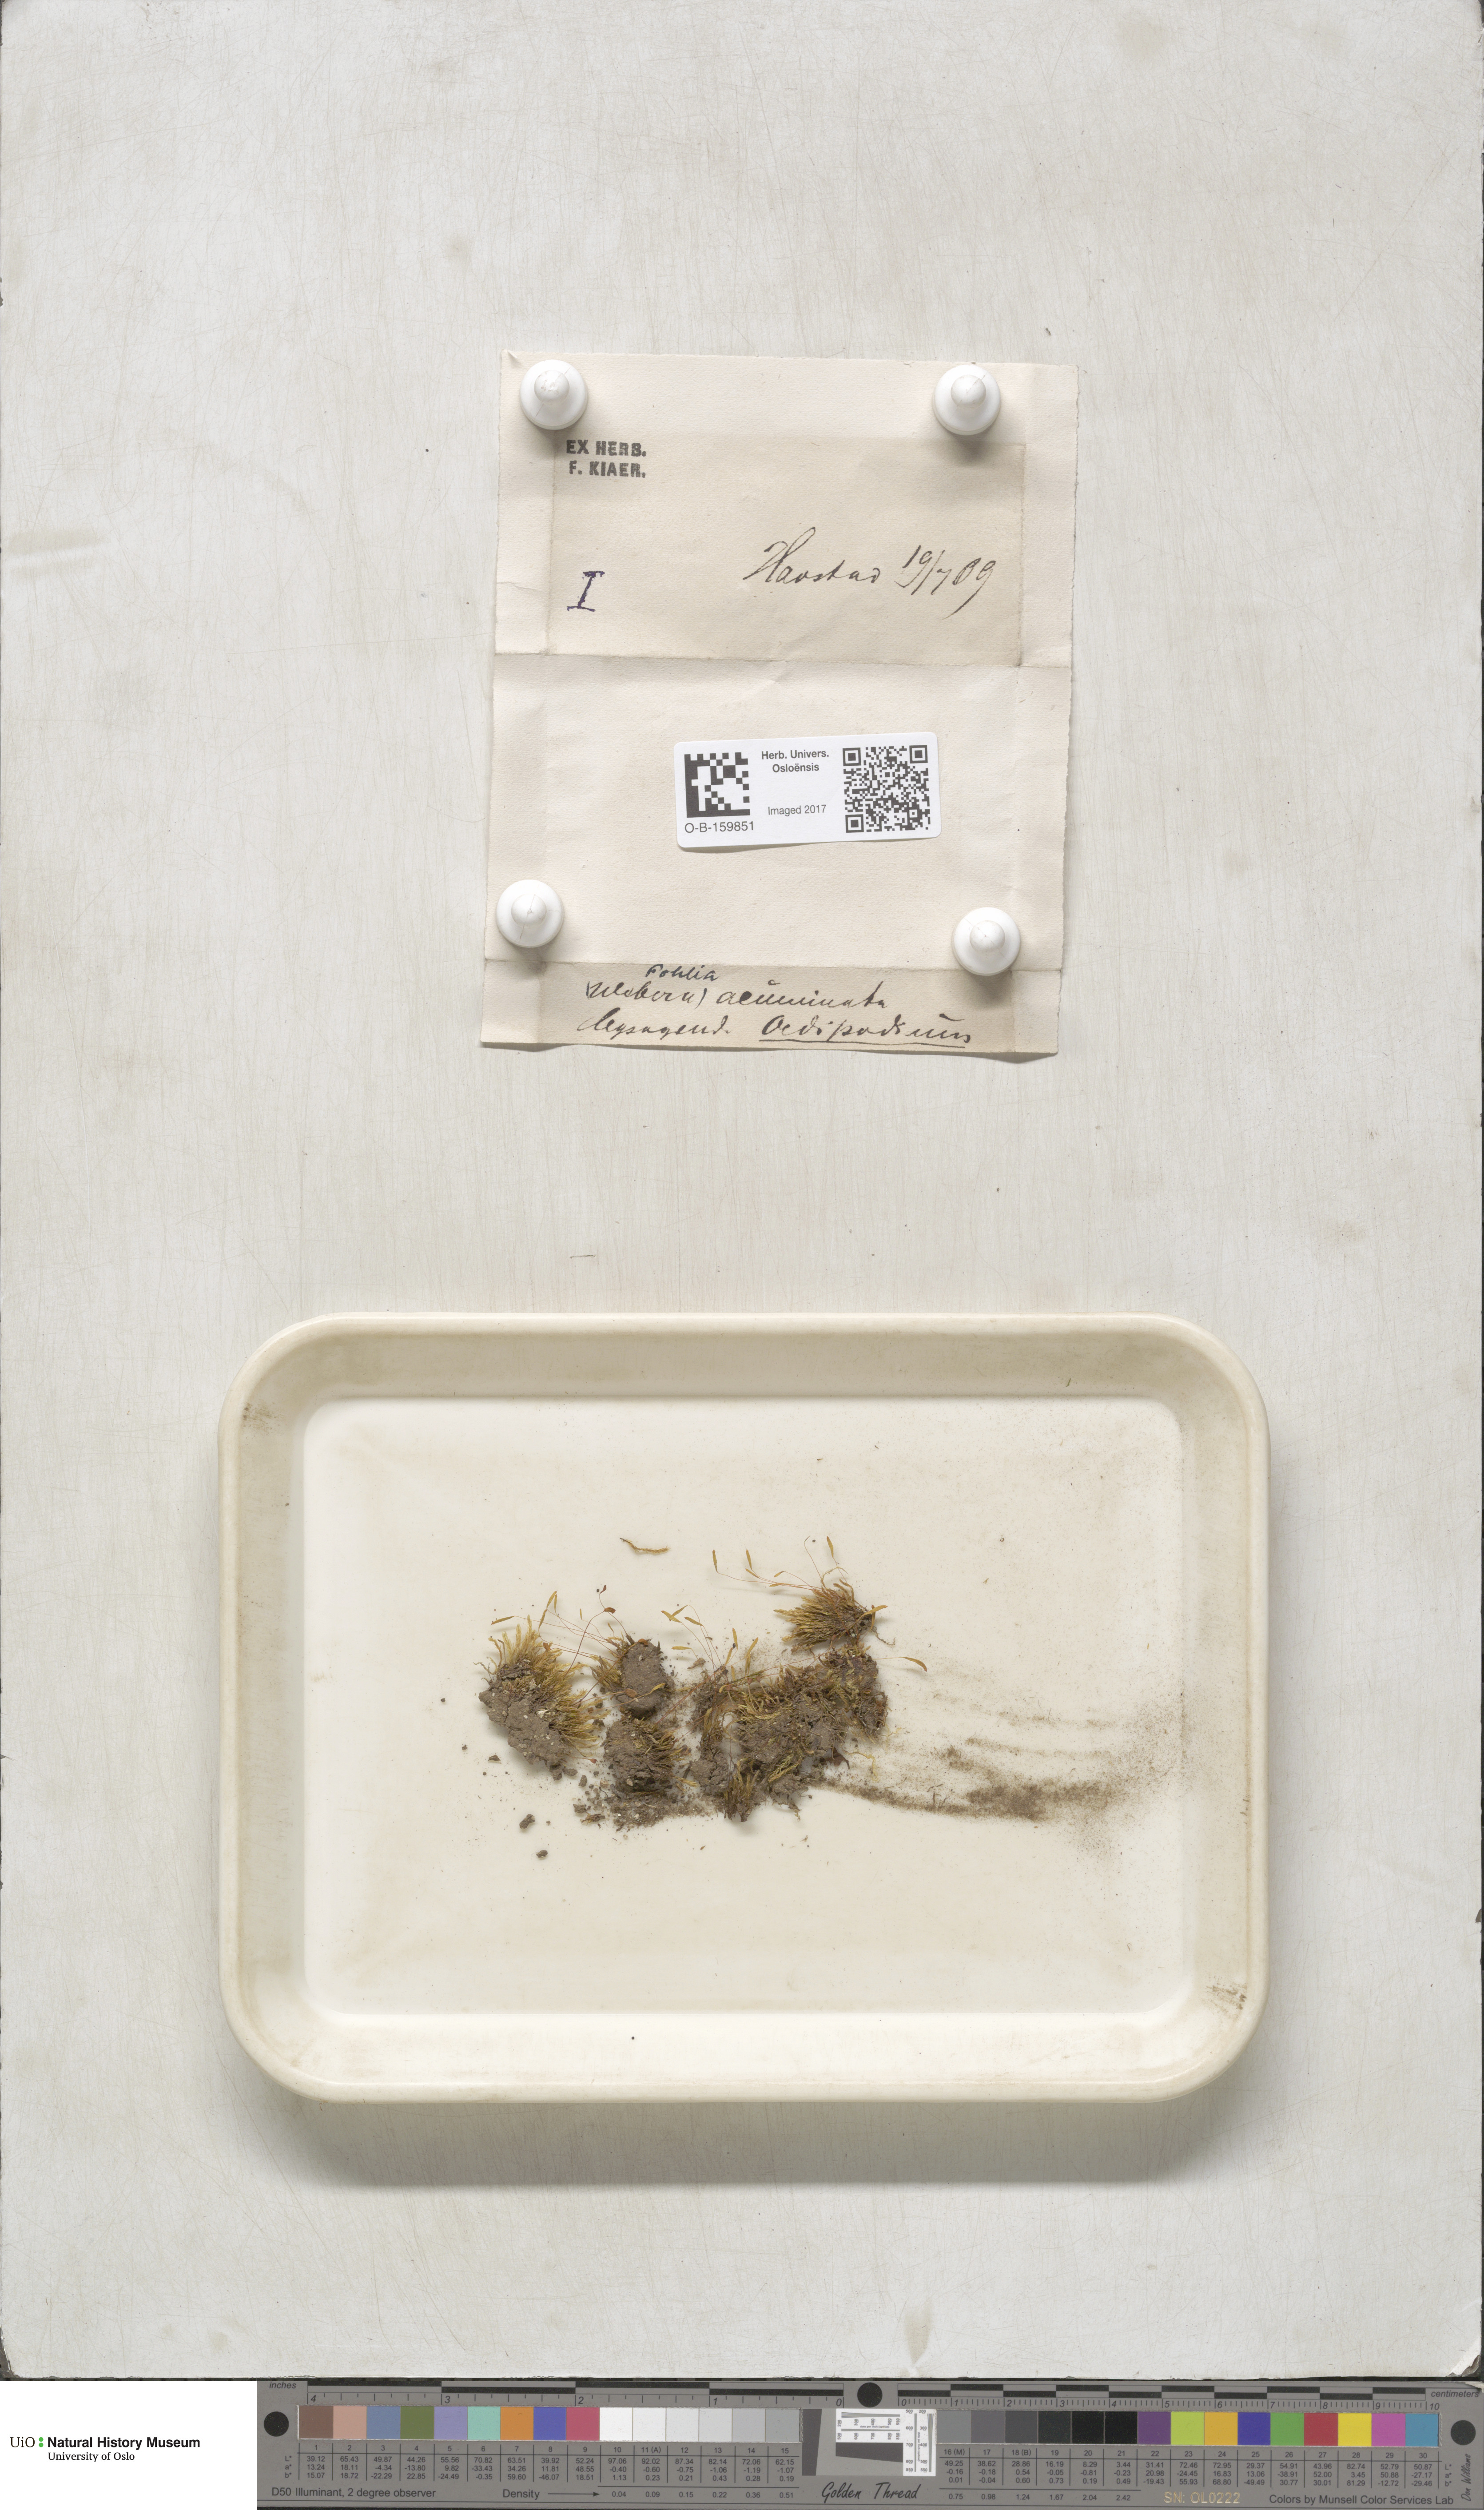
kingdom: Plantae
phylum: Bryophyta
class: Bryopsida
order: Bryales
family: Mniaceae
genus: Pohlia
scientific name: Pohlia elongata
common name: Long-fruited thread-moss
